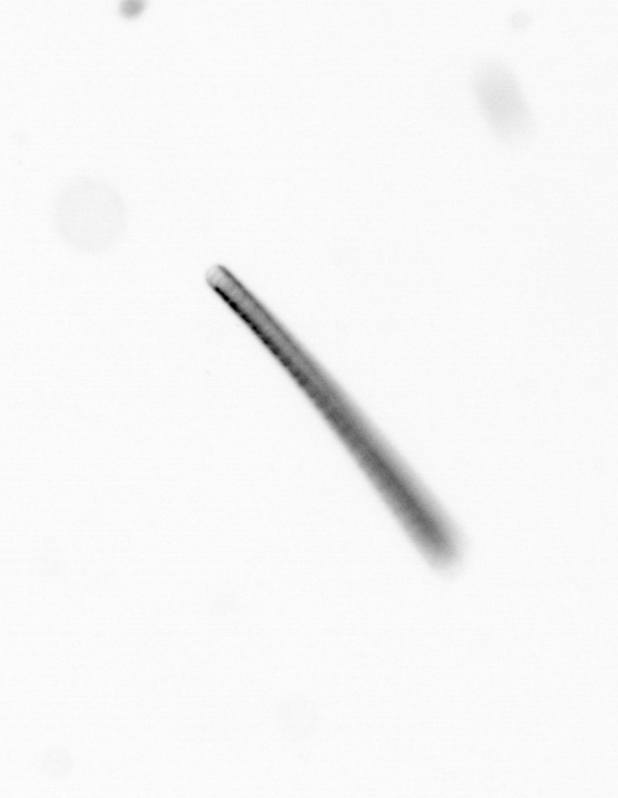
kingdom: Chromista
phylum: Ochrophyta
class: Bacillariophyceae
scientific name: Bacillariophyceae
